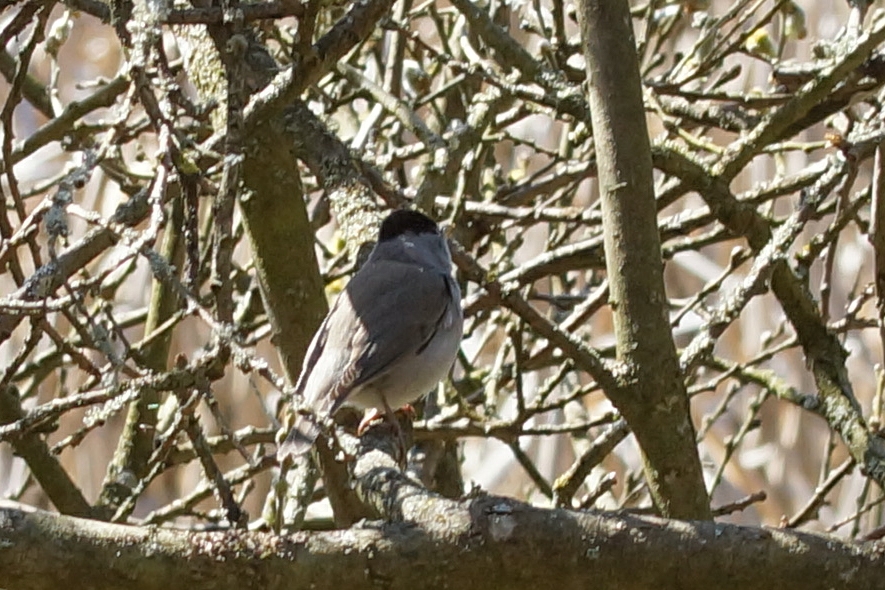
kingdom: Animalia
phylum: Chordata
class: Aves
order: Passeriformes
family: Sylviidae
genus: Sylvia
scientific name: Sylvia atricapilla
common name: Munk
